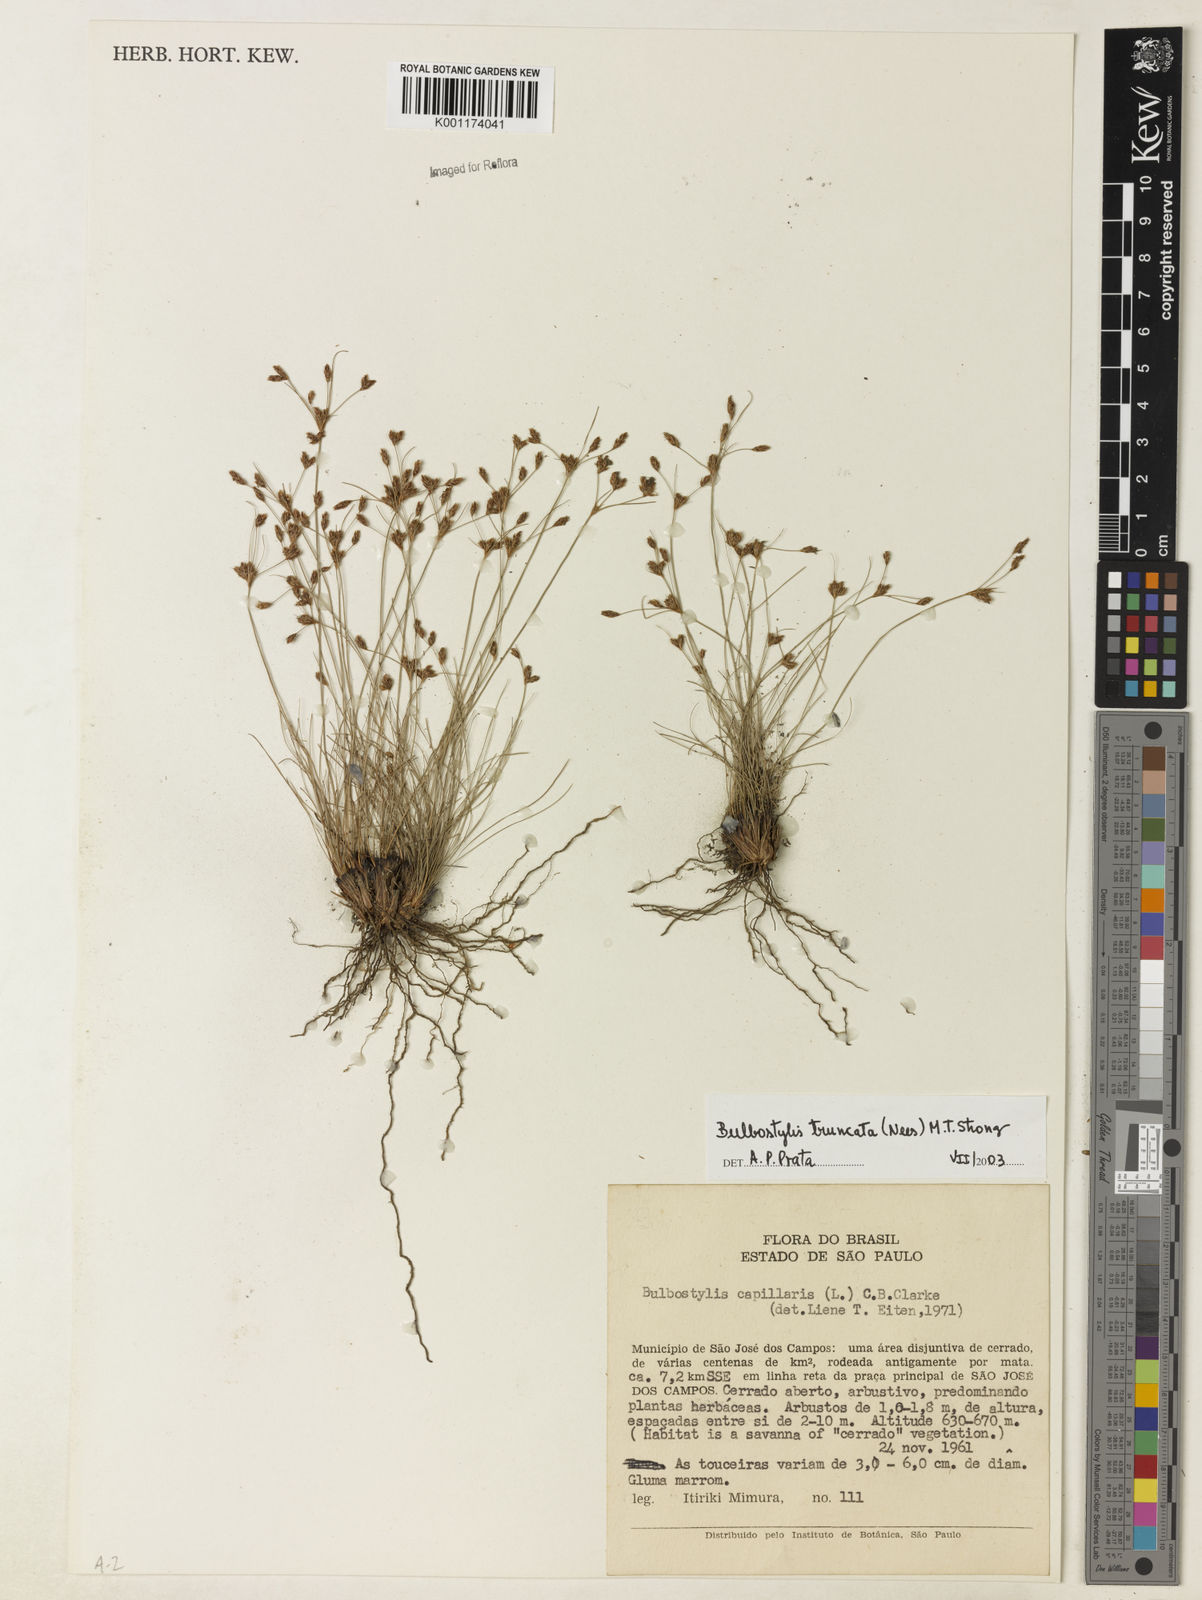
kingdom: Plantae
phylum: Tracheophyta
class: Liliopsida
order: Poales
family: Cyperaceae
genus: Bulbostylis
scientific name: Bulbostylis truncata
